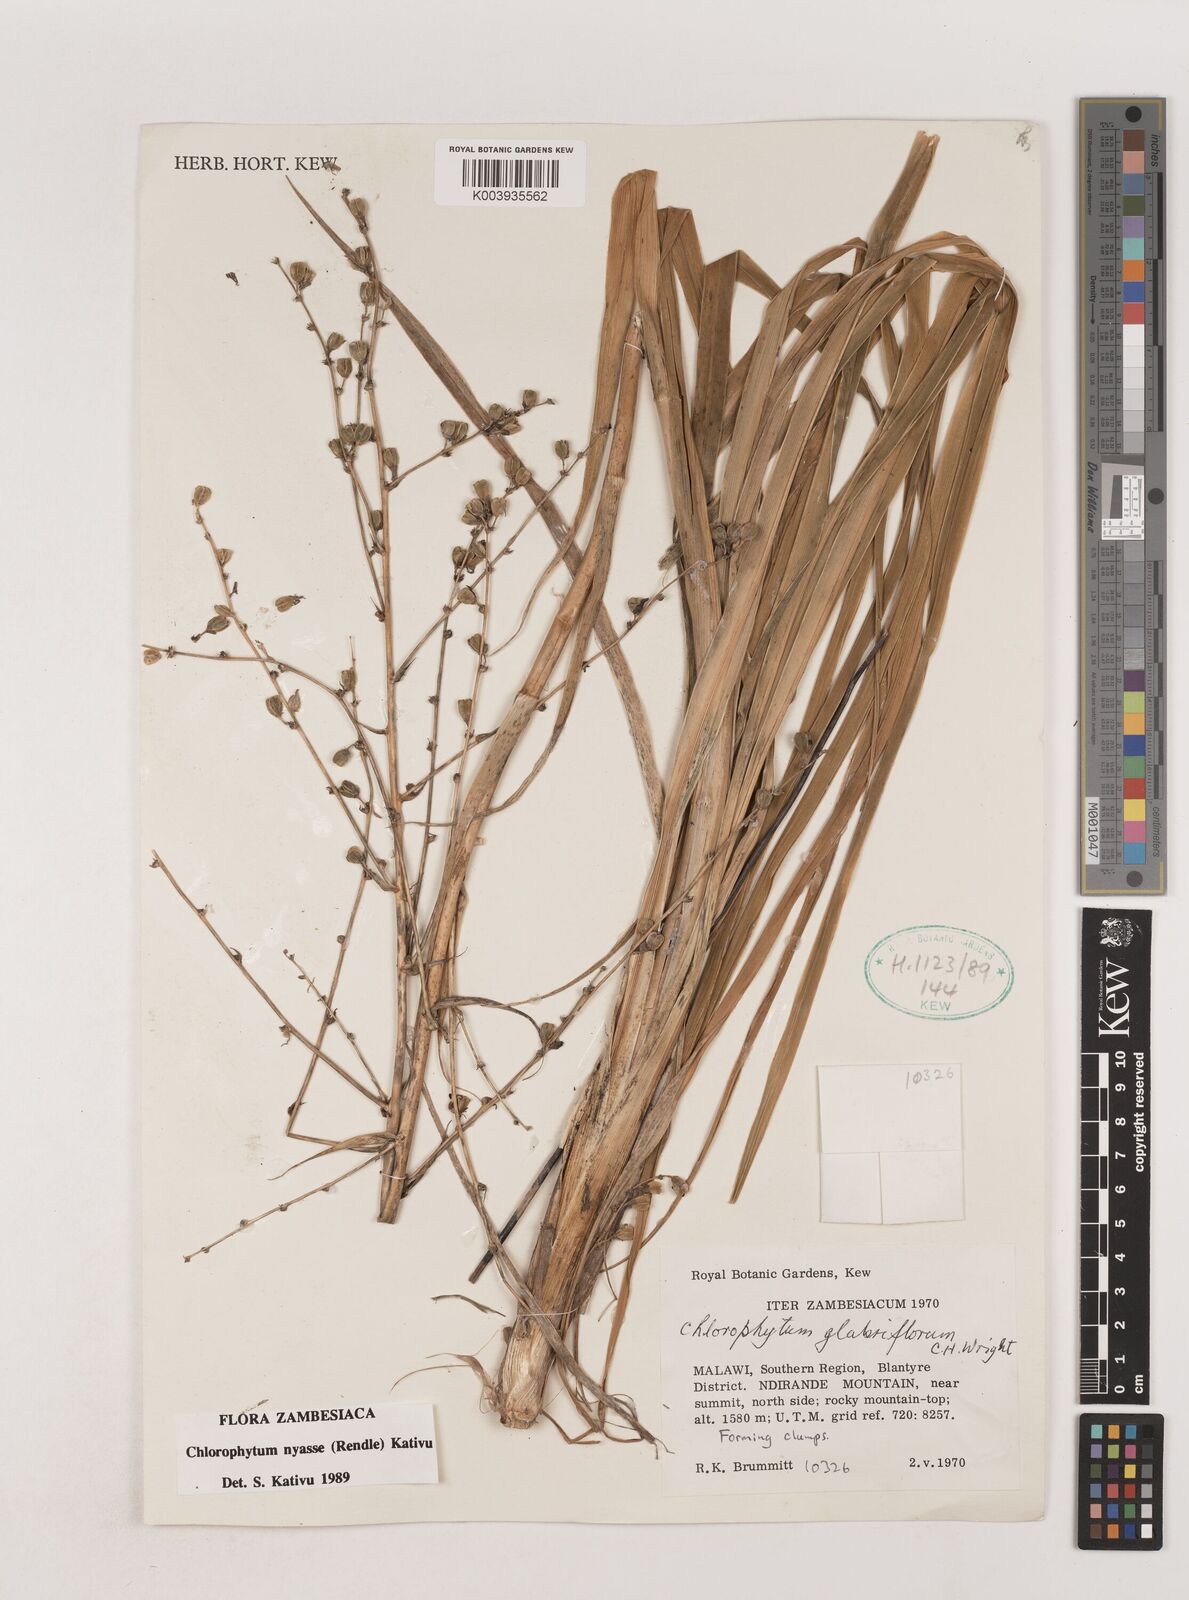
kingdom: Plantae
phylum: Tracheophyta
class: Liliopsida
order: Asparagales
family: Asparagaceae
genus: Chlorophytum
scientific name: Chlorophytum nyasae
